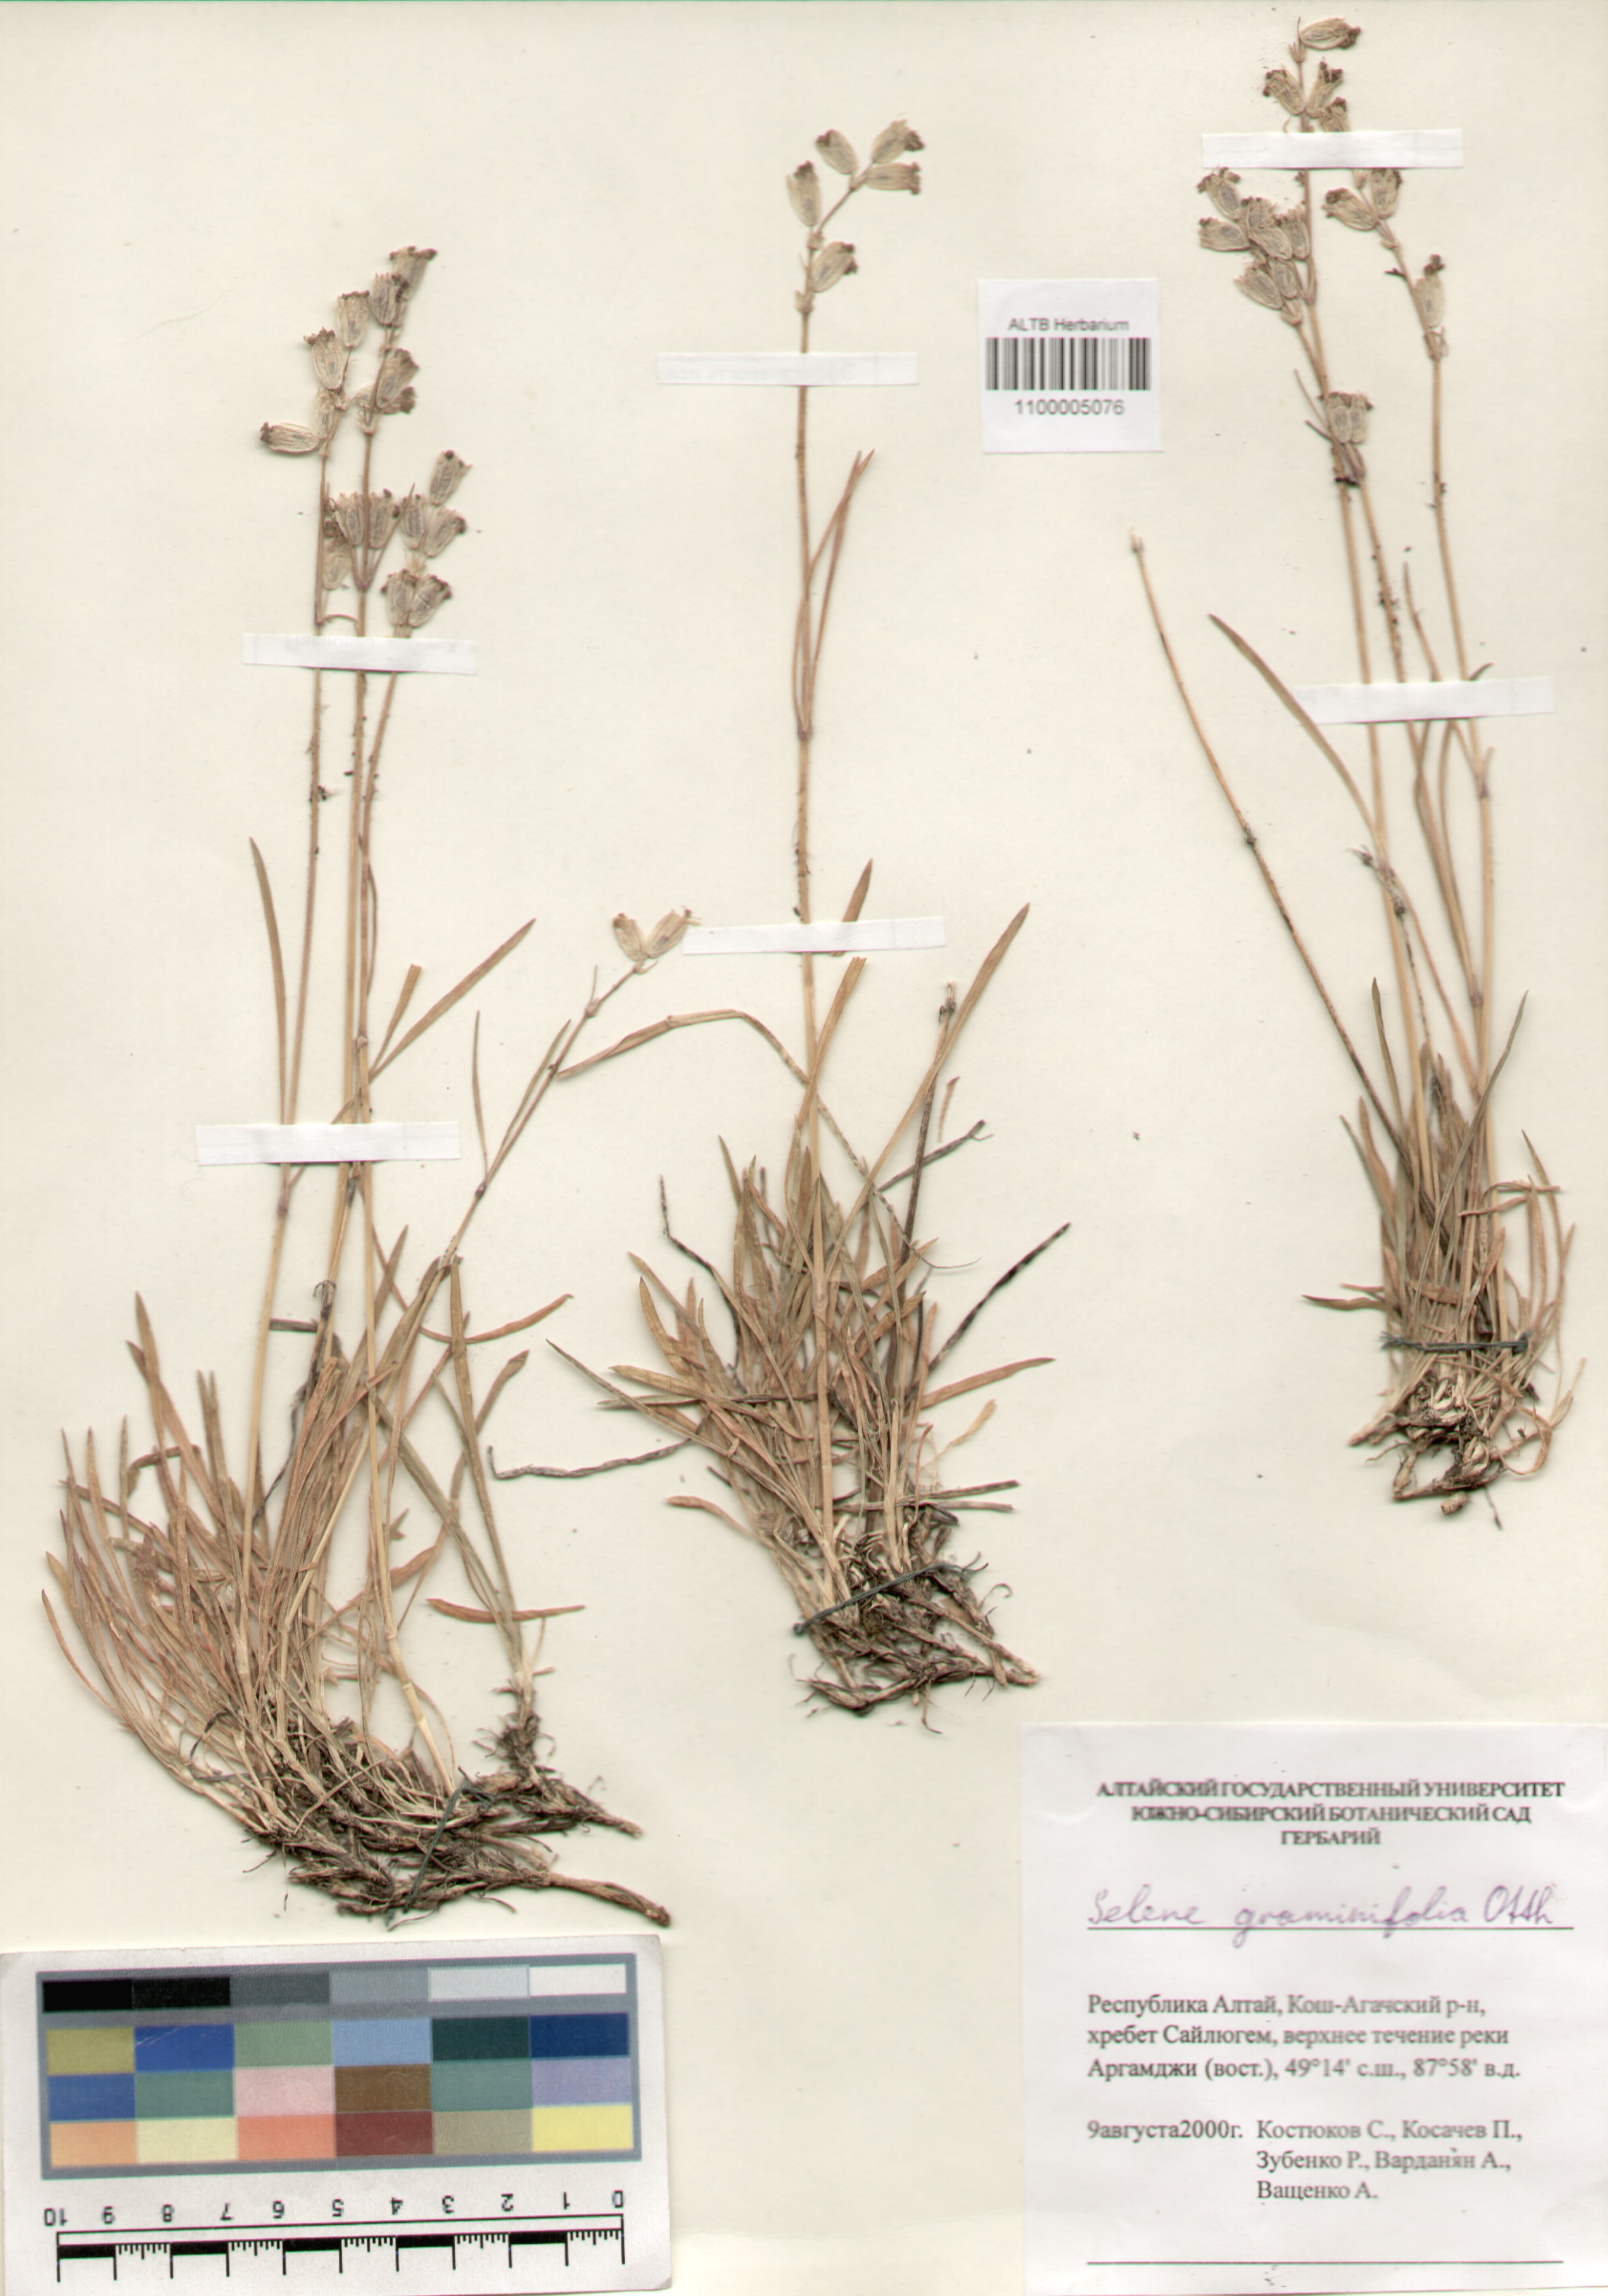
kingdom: Plantae
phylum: Tracheophyta
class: Magnoliopsida
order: Caryophyllales
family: Caryophyllaceae
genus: Silene
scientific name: Silene graminifolia
